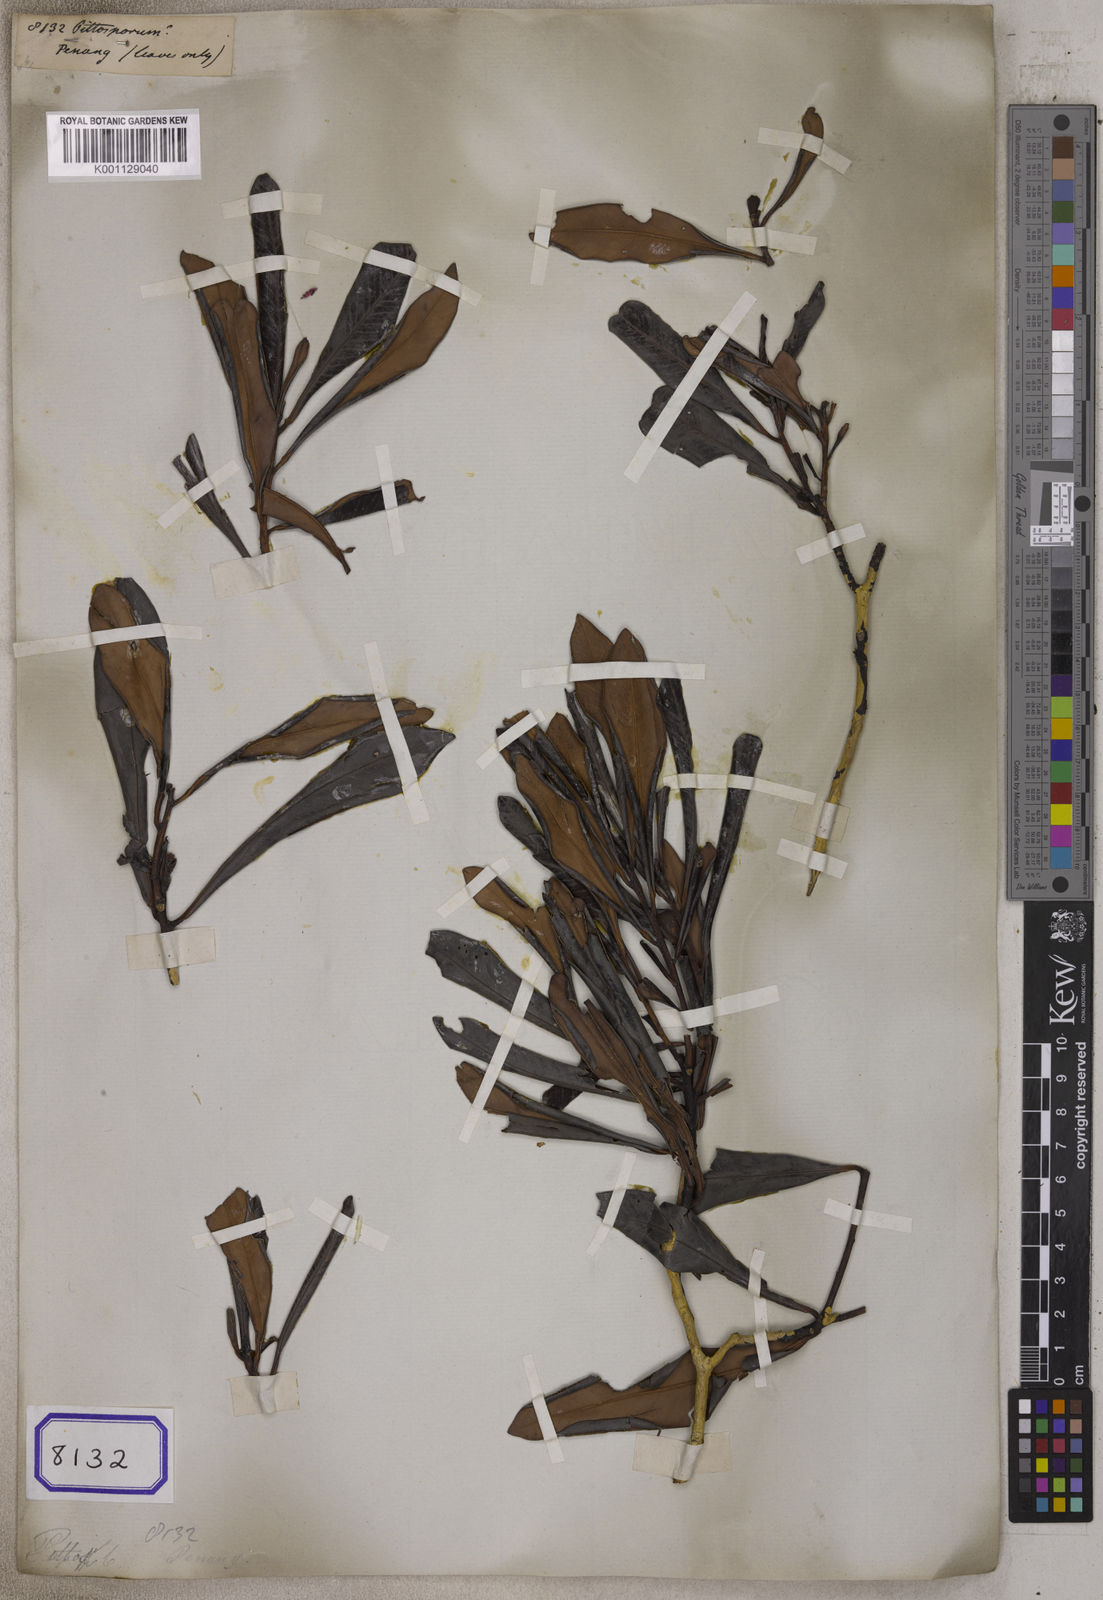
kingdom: Plantae
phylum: Tracheophyta
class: Magnoliopsida
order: Apiales
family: Pittosporaceae
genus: Pittosporum
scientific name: Pittosporum
